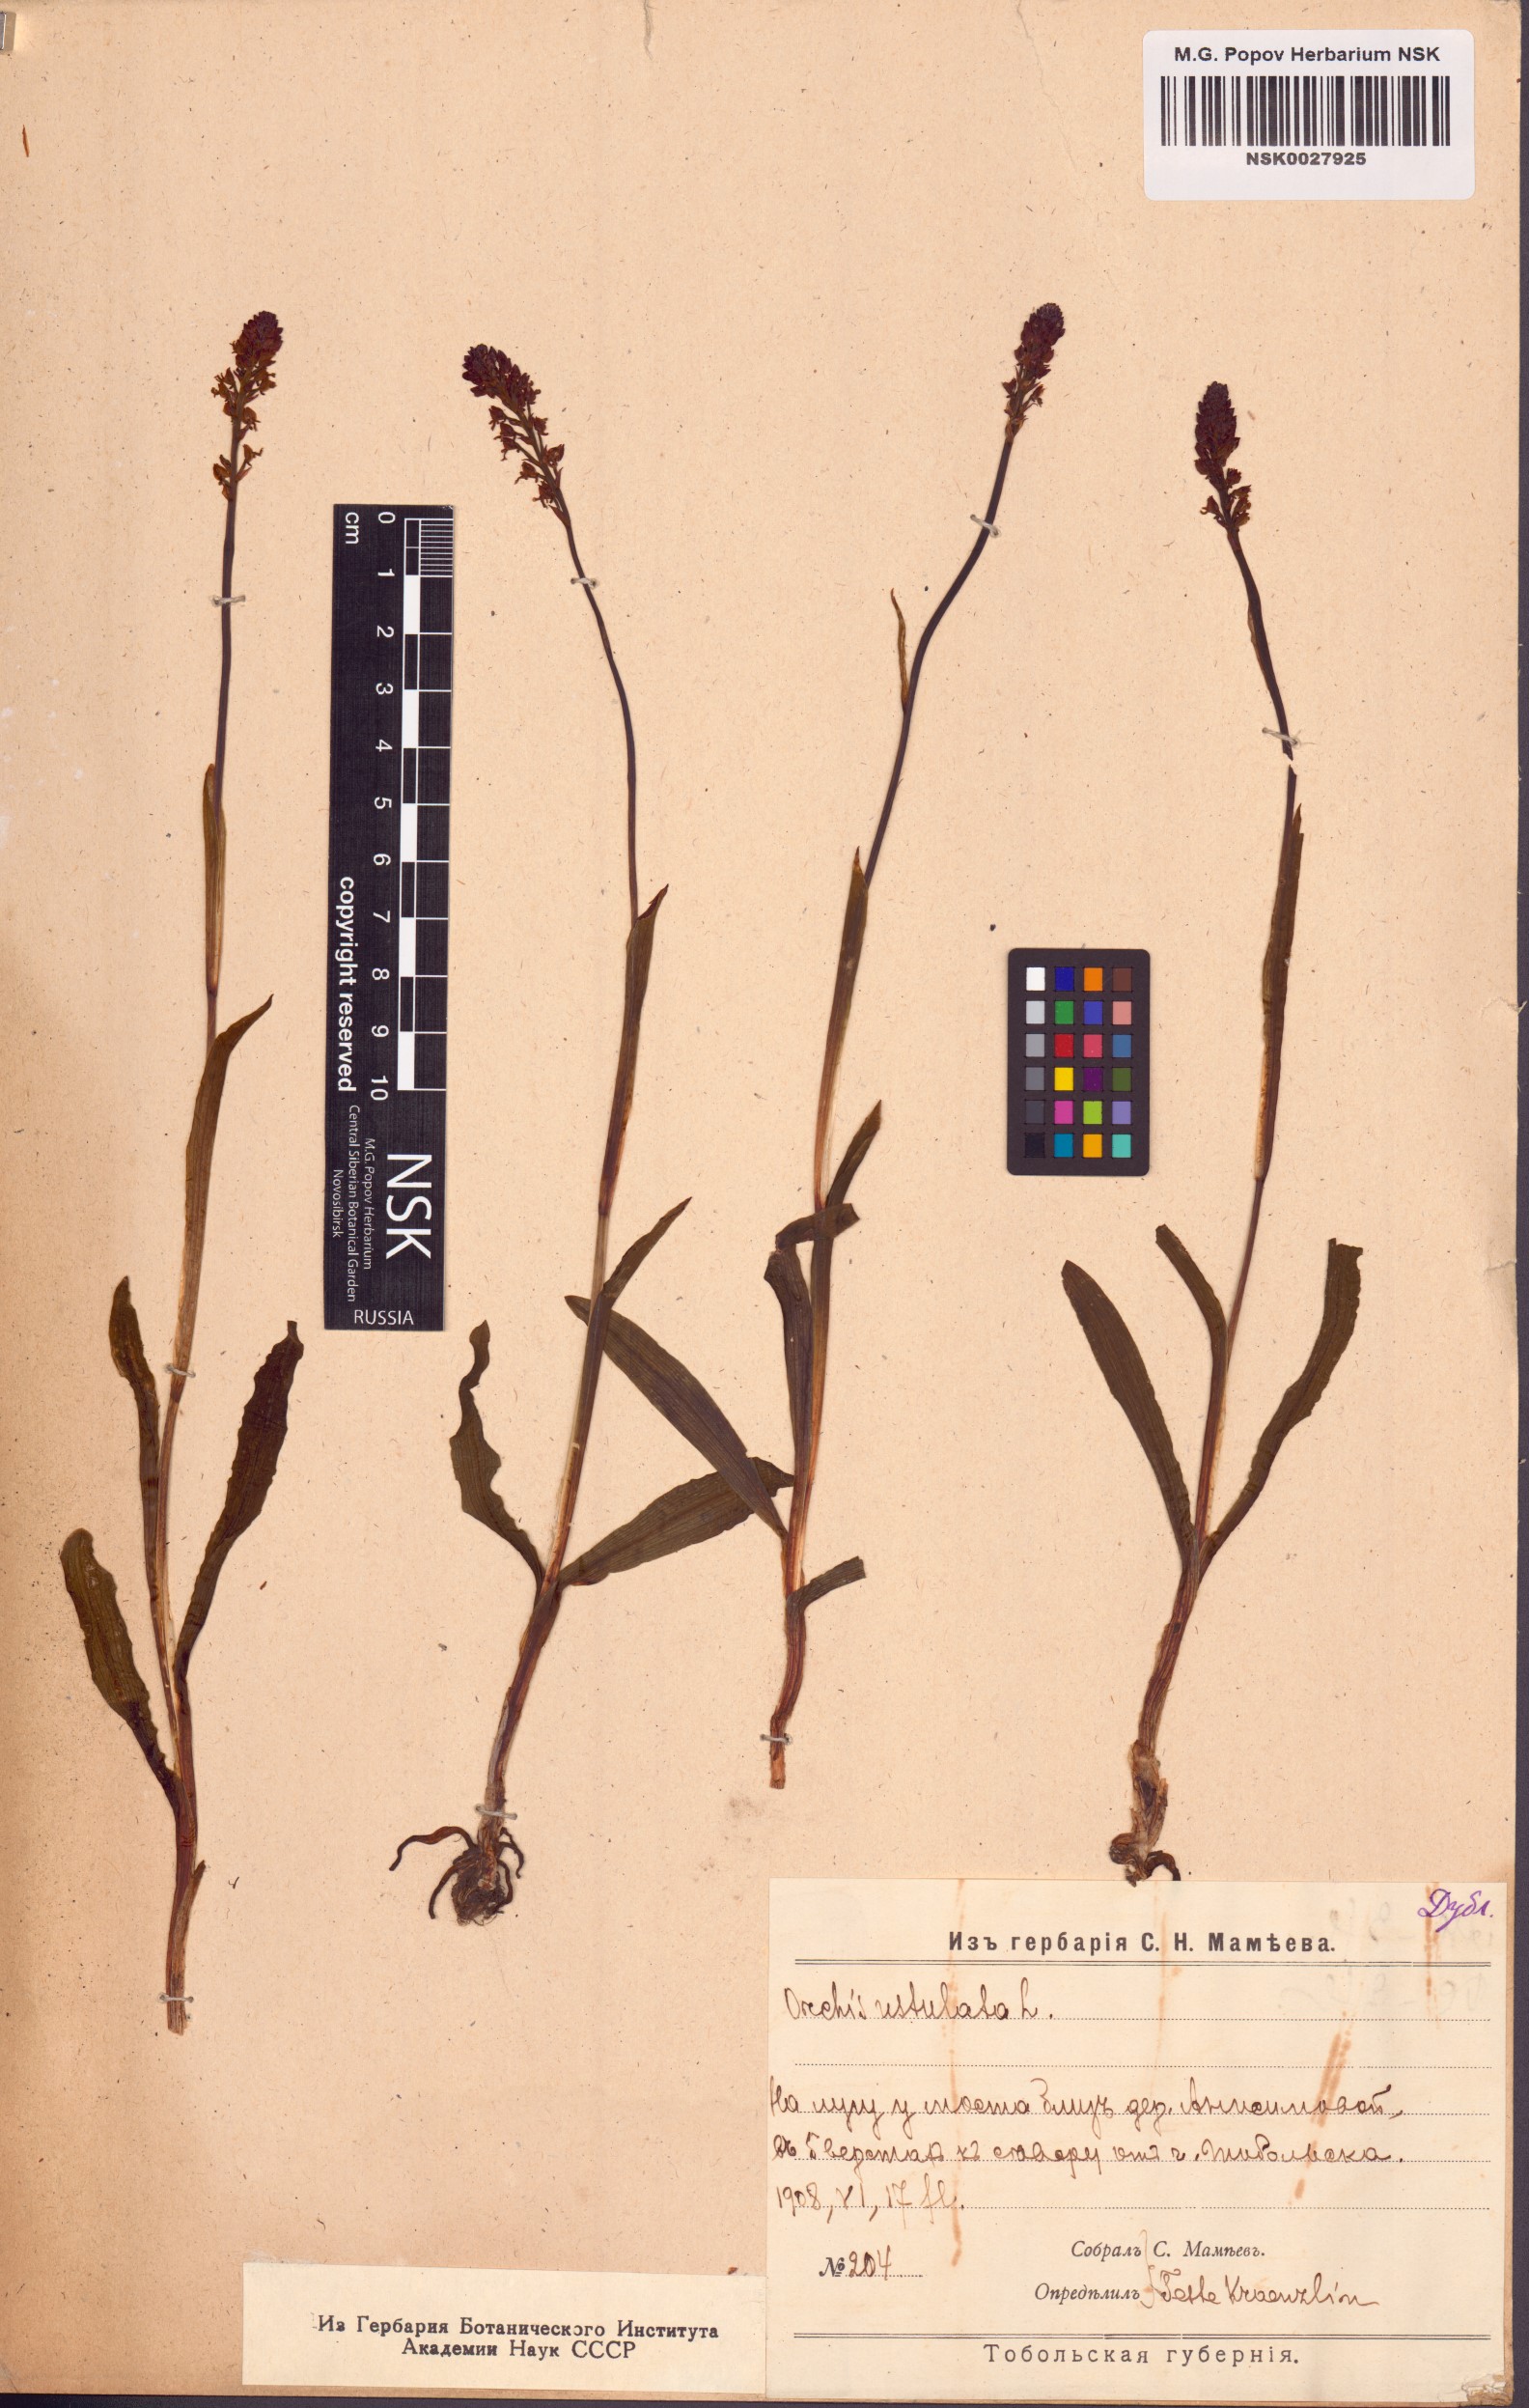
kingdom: Plantae
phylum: Tracheophyta
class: Liliopsida
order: Asparagales
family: Orchidaceae
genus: Neotinea
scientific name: Neotinea ustulata
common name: Burnt orchid
